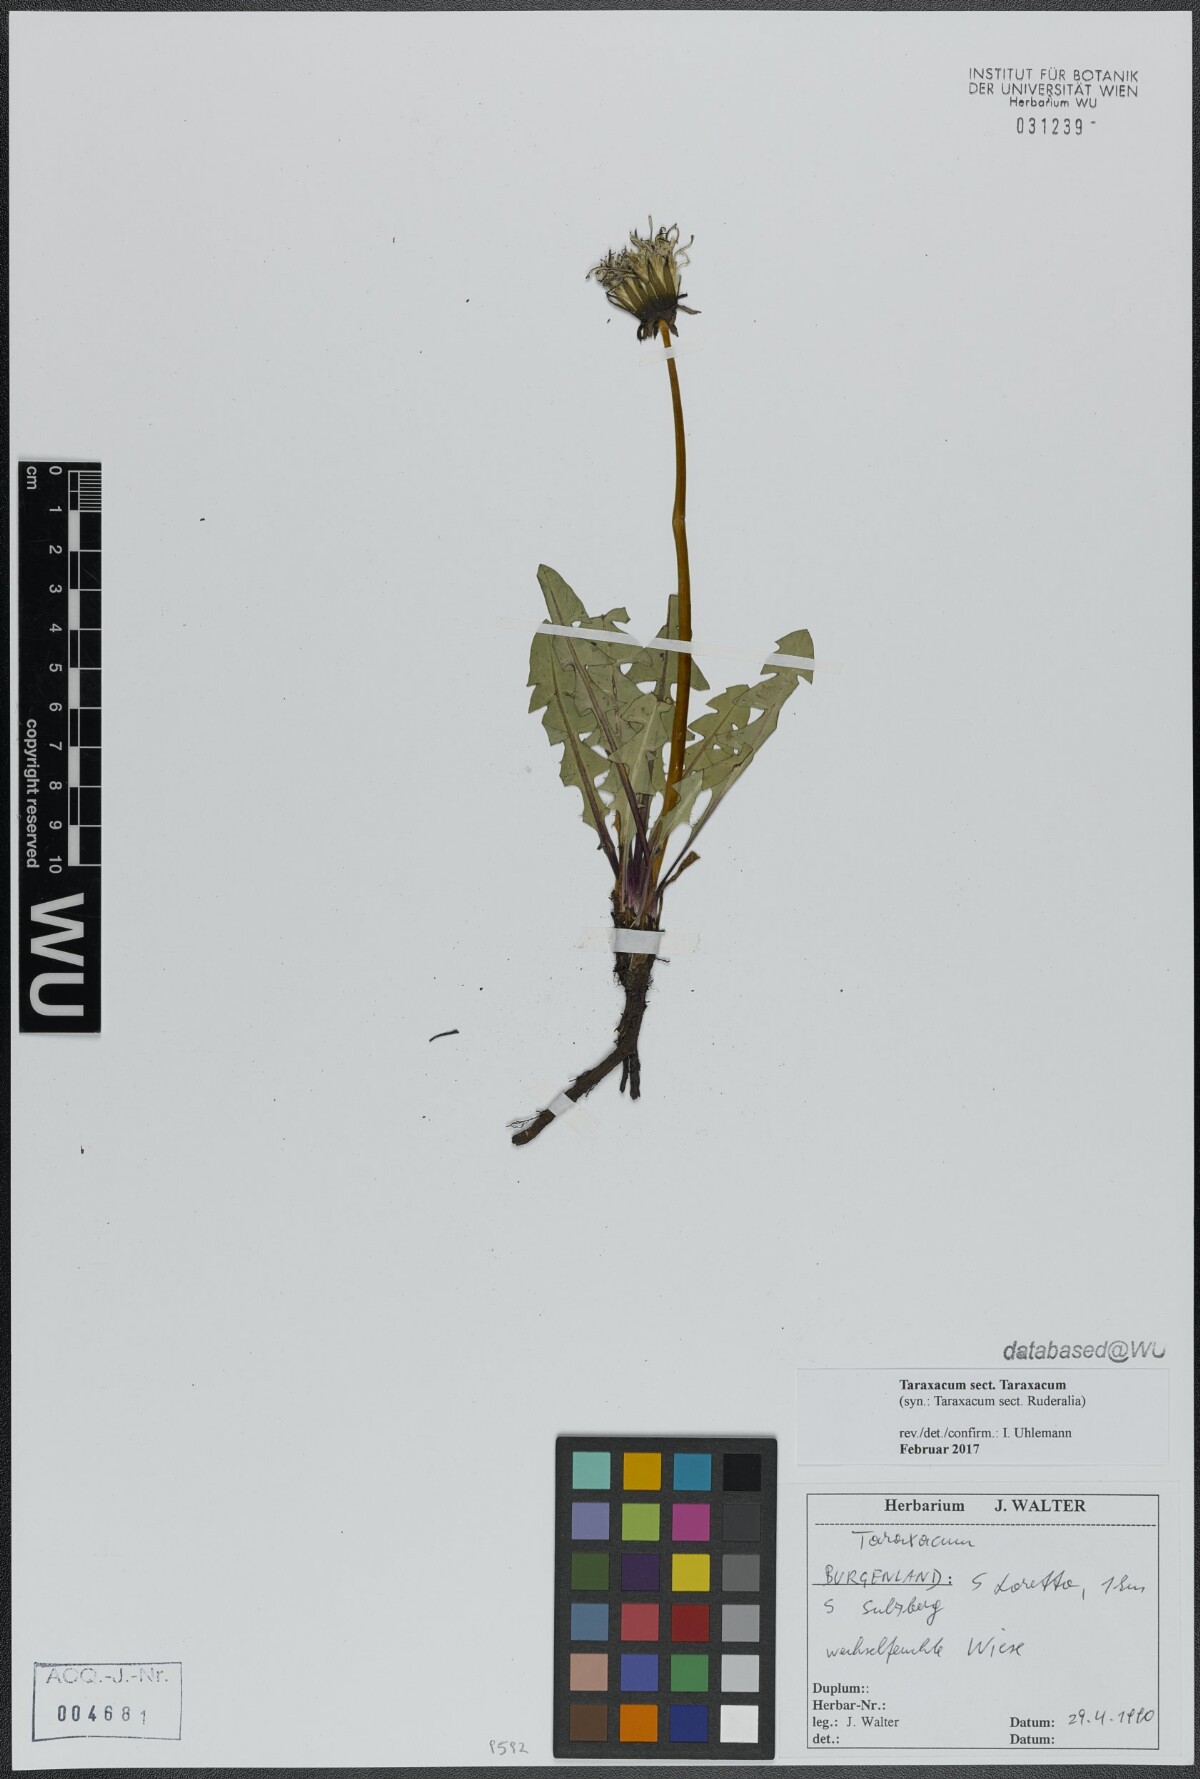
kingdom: Plantae
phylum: Tracheophyta
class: Magnoliopsida
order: Asterales
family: Asteraceae
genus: Taraxacum
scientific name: Taraxacum
